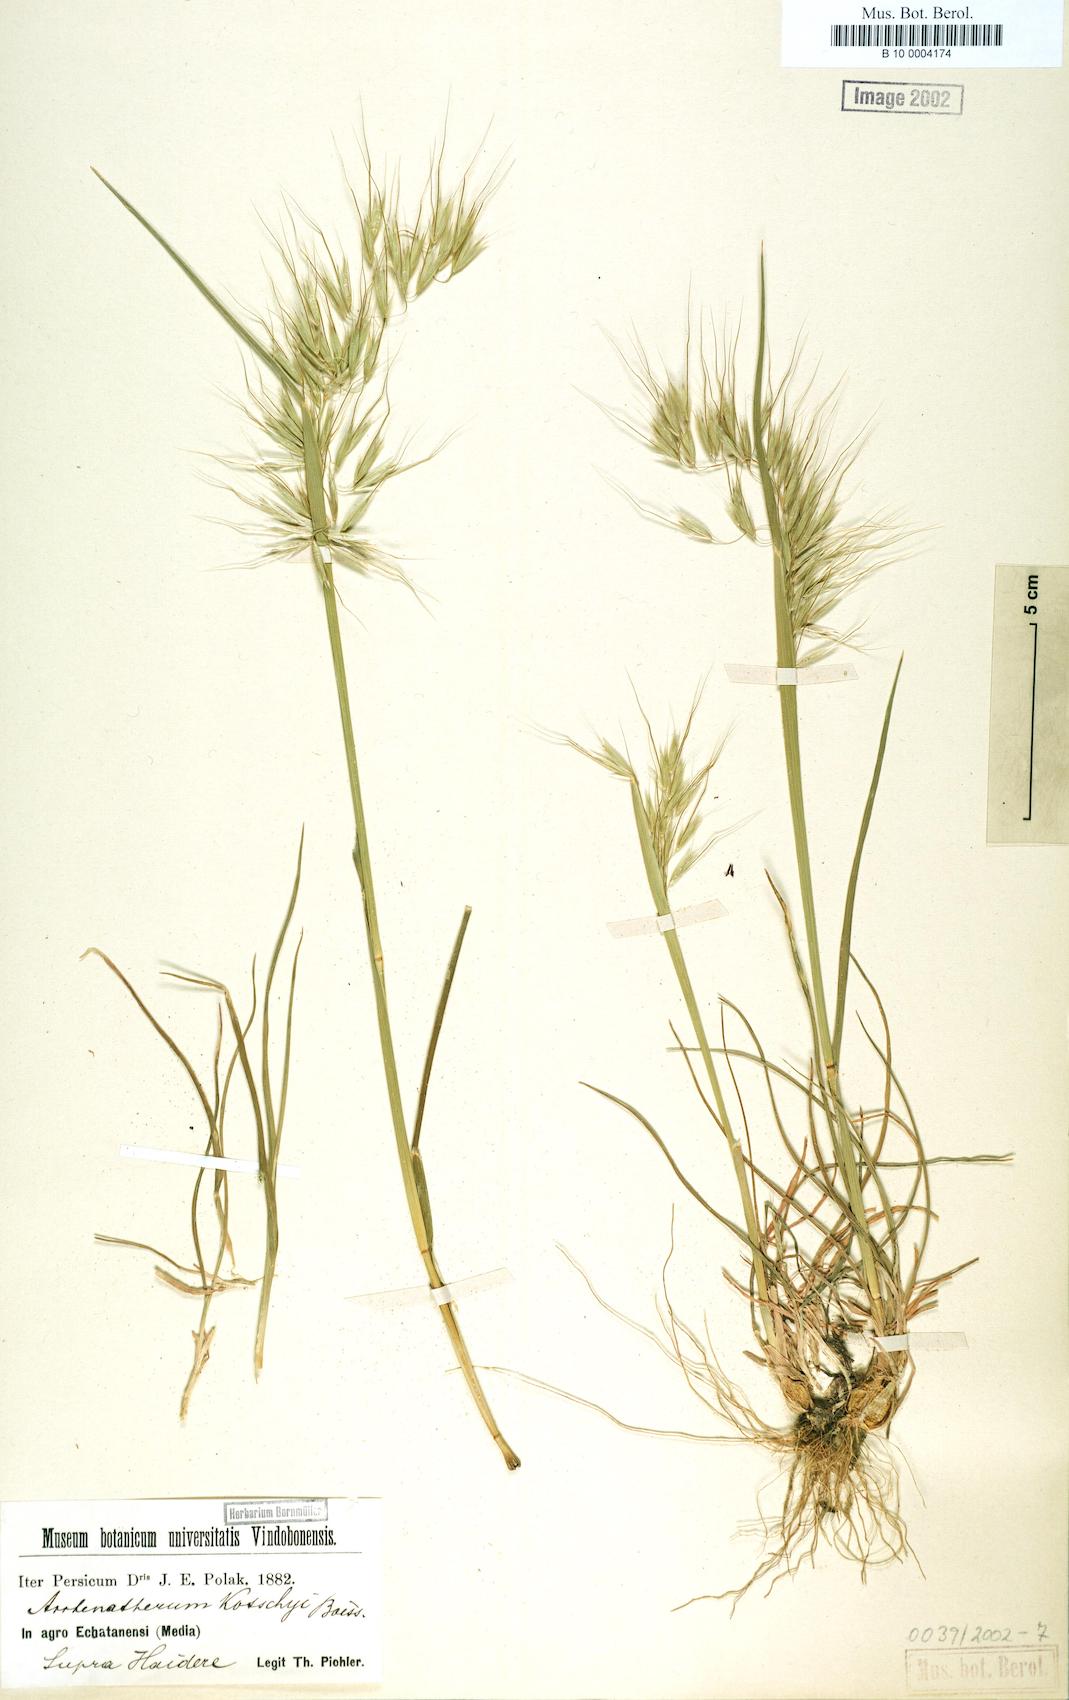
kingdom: Plantae
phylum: Tracheophyta
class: Liliopsida
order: Poales
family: Poaceae
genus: Arrhenatherum
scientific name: Arrhenatherum kotschyi
